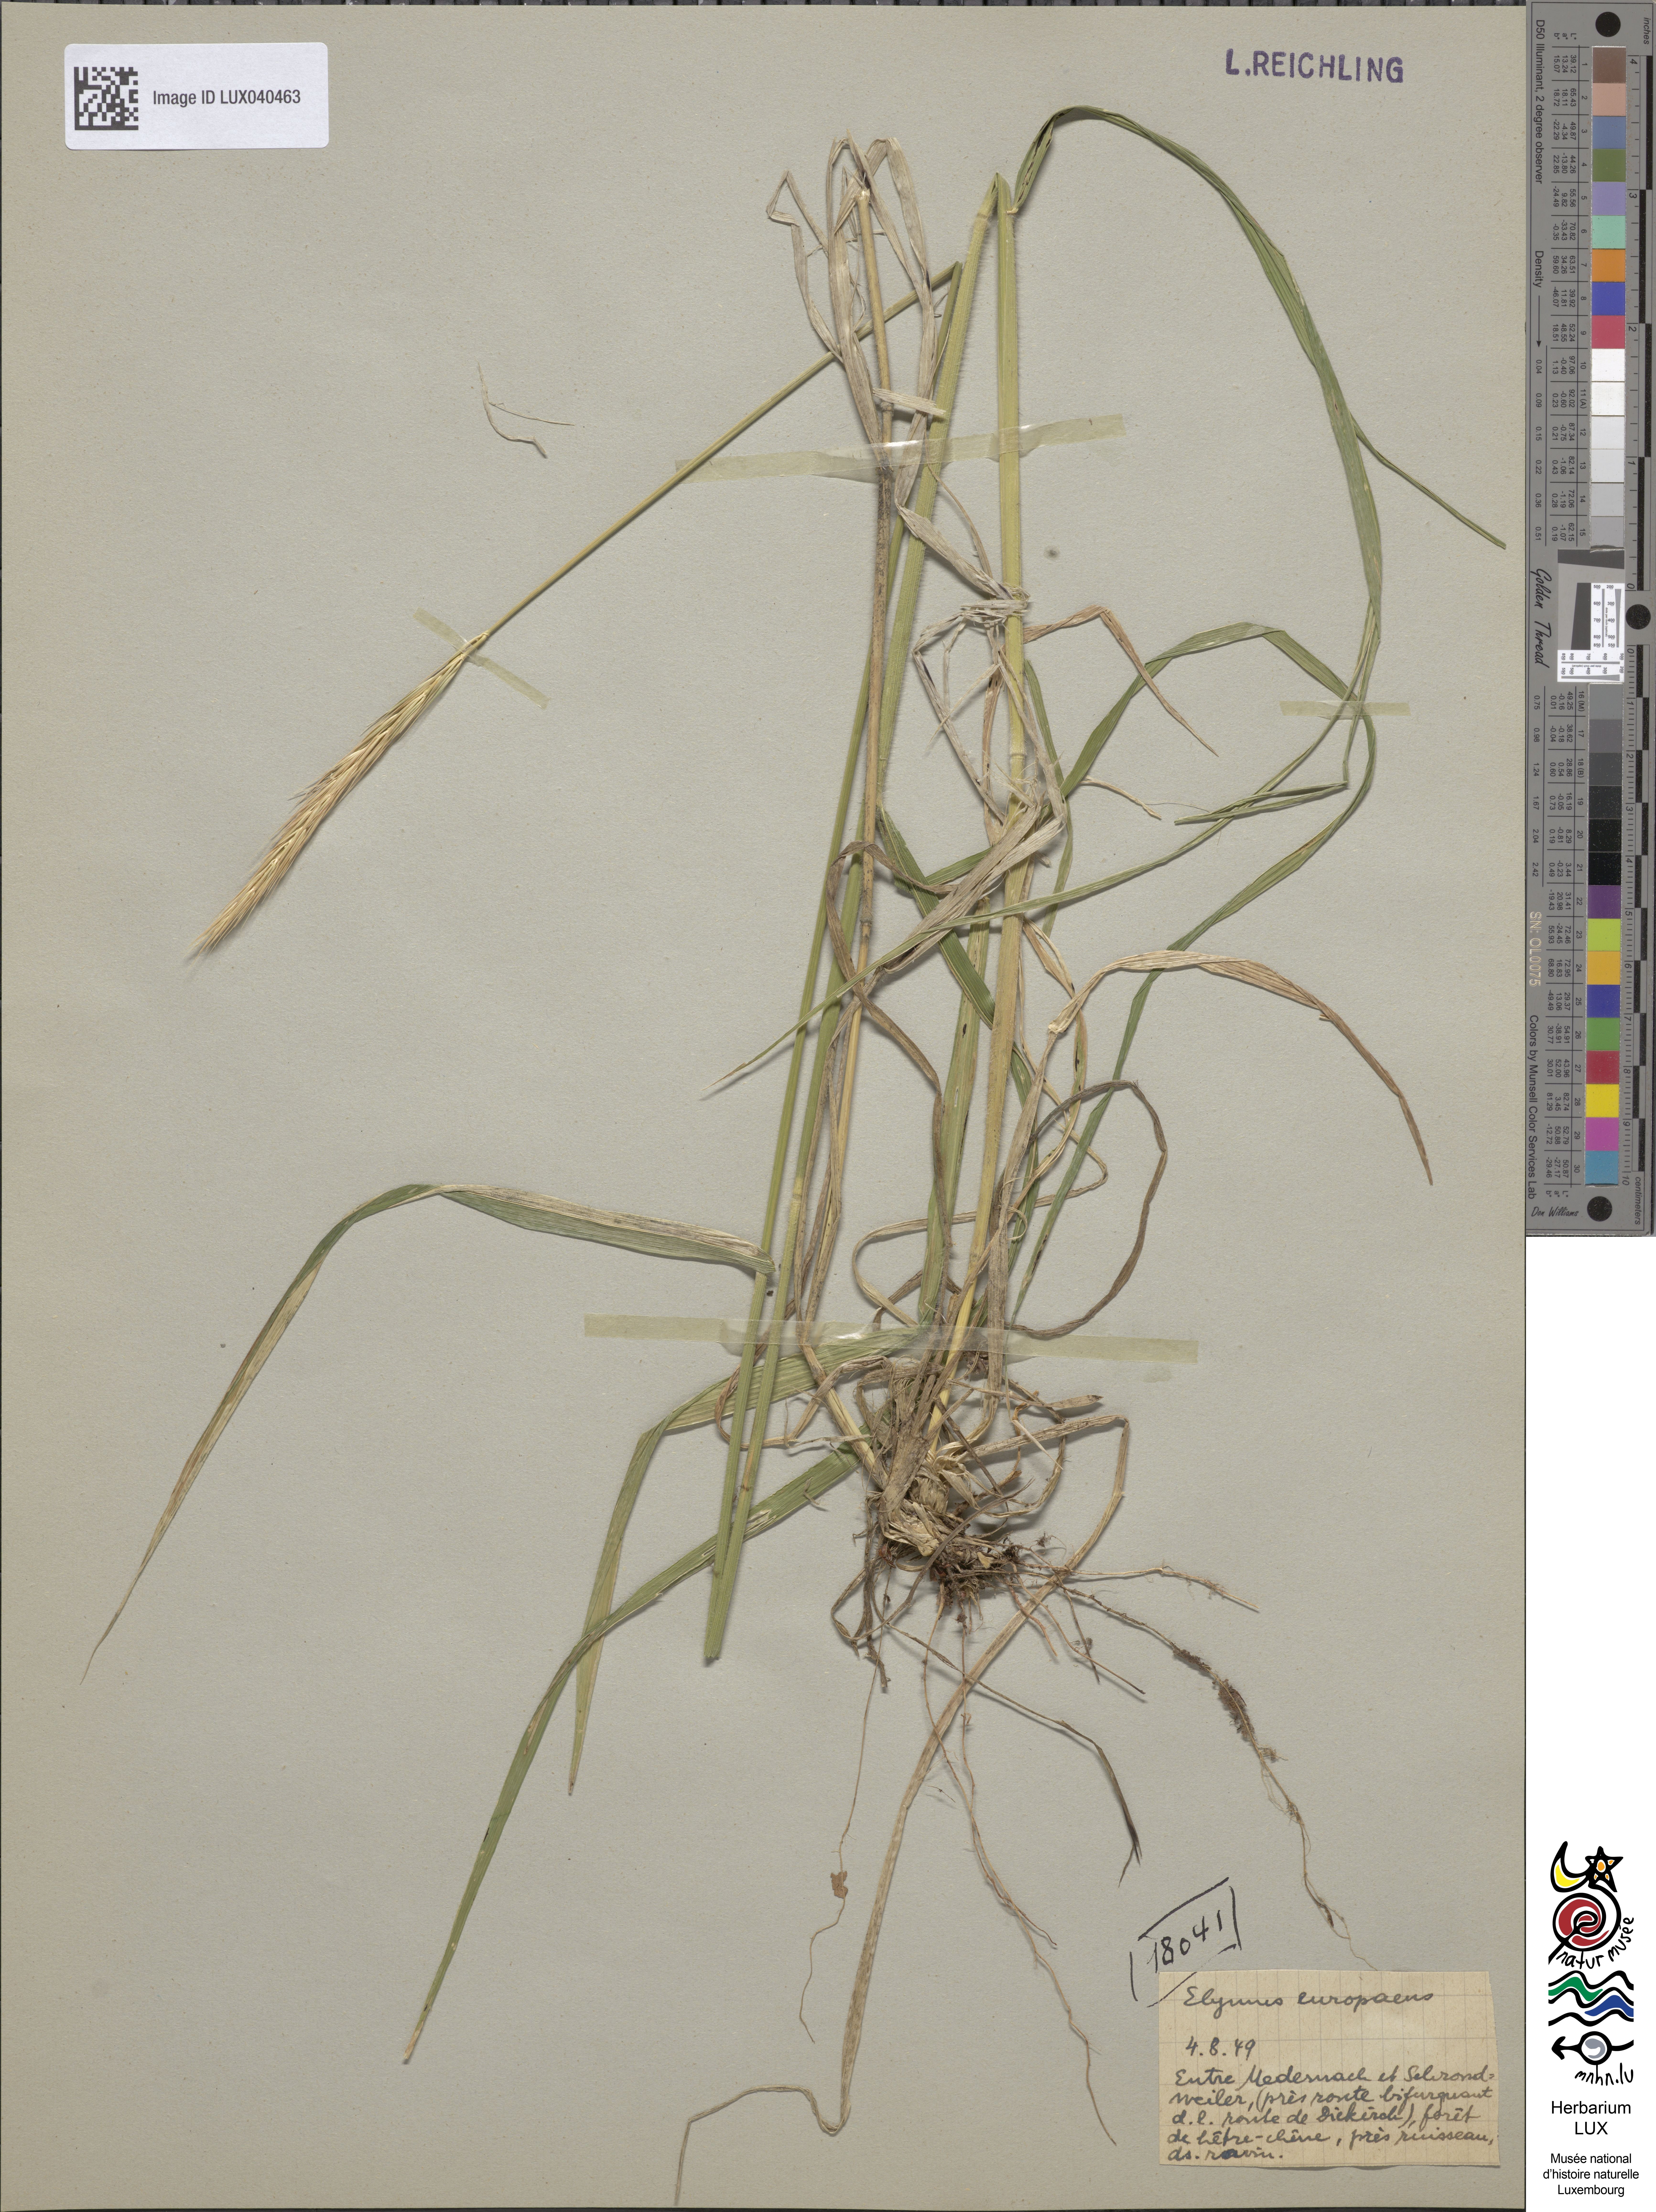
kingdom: Plantae
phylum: Tracheophyta
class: Liliopsida
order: Poales
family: Poaceae
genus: Hordelymus
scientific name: Hordelymus europaeus
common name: Wood-barley
